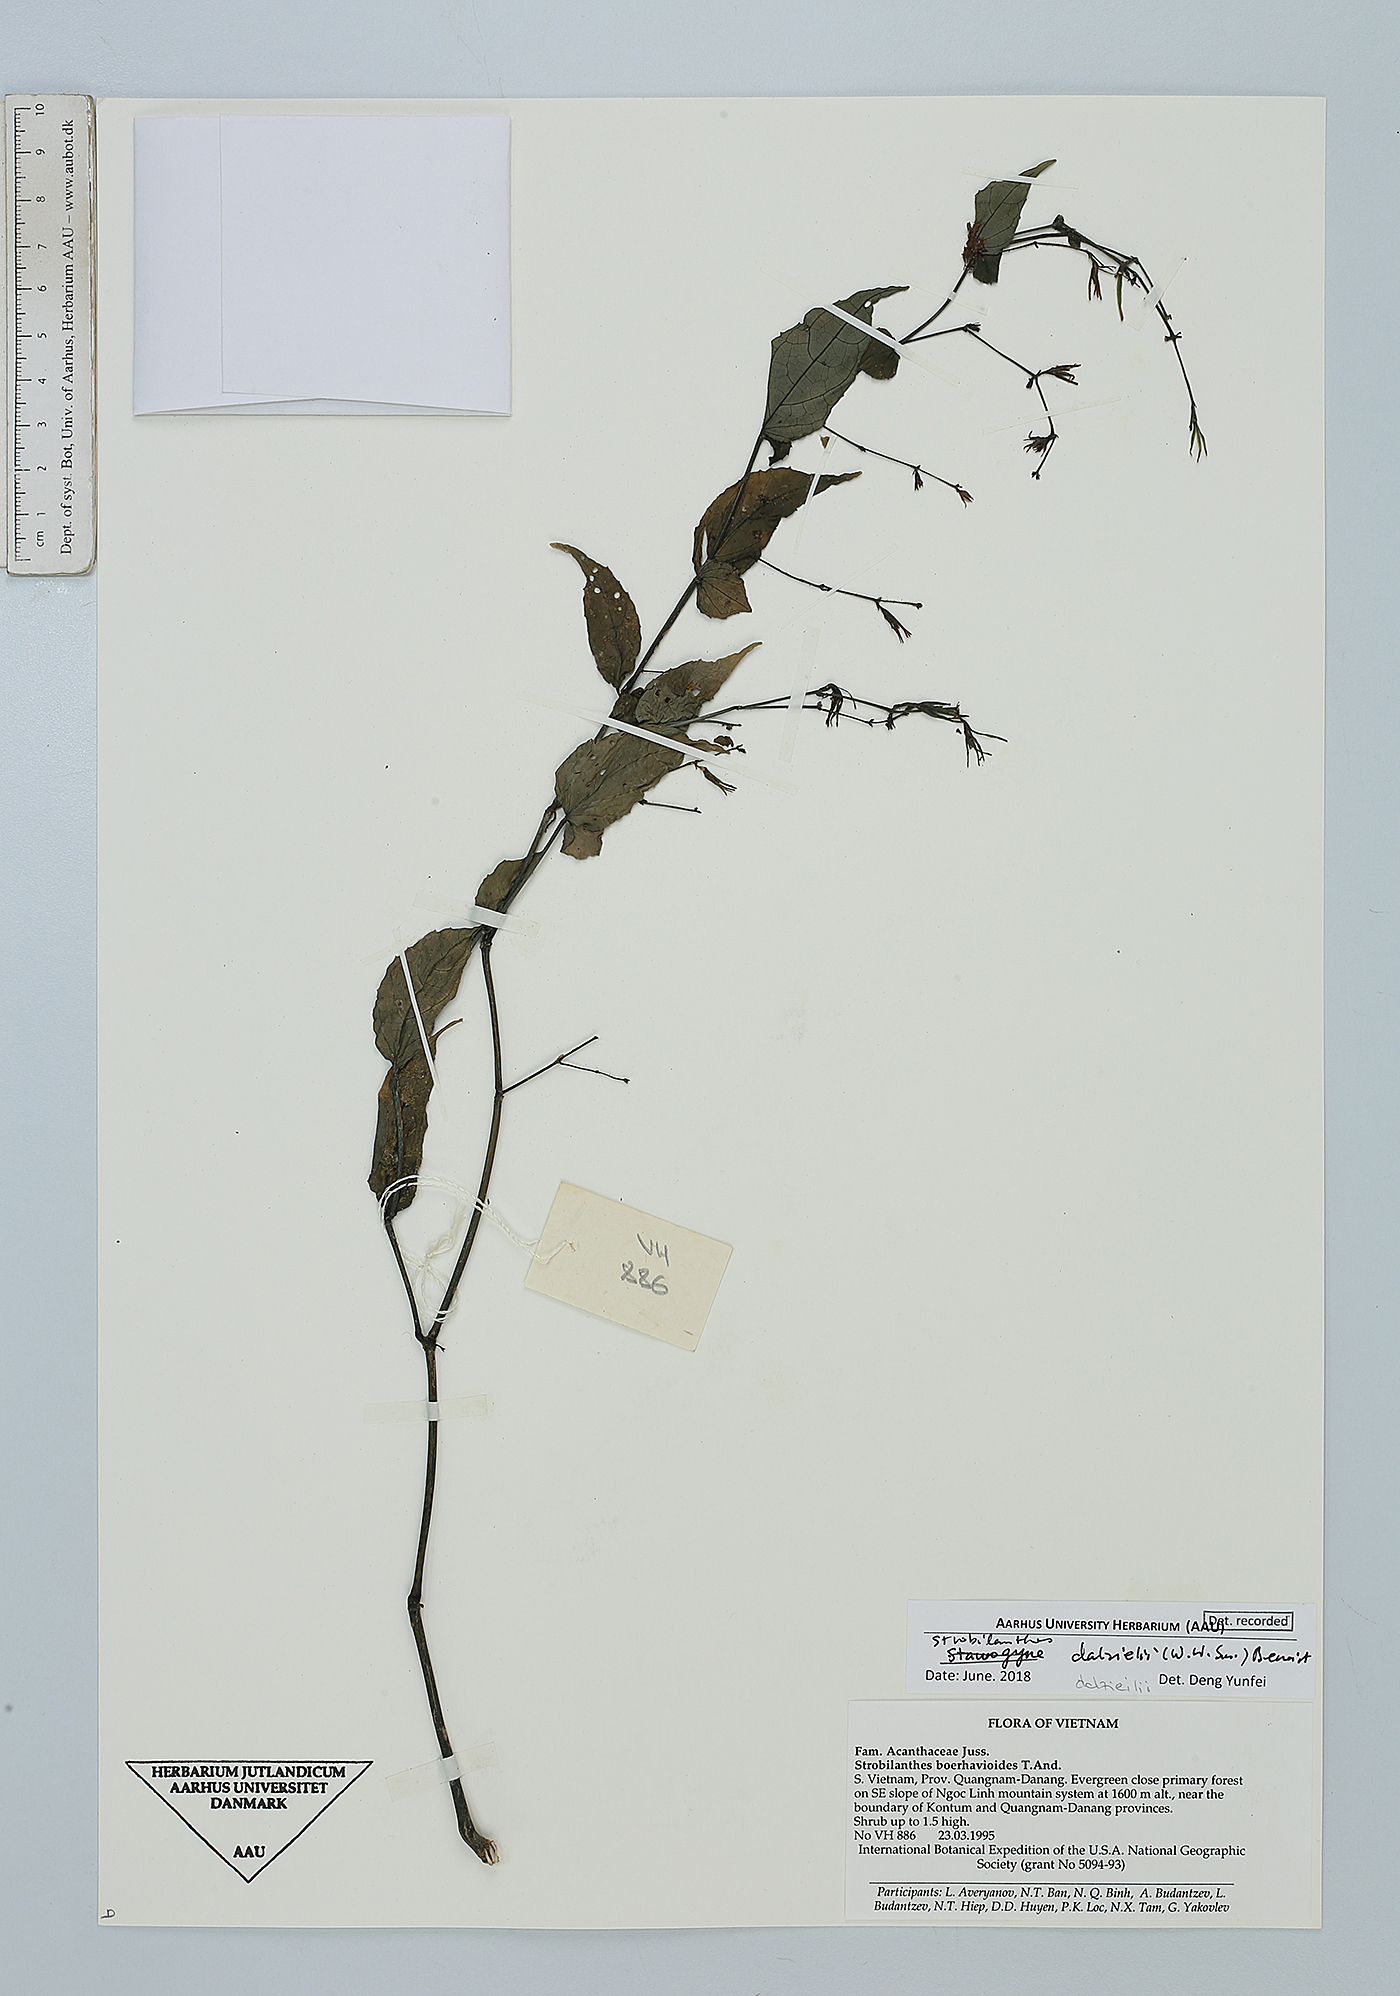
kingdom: Plantae
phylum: Tracheophyta
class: Magnoliopsida
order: Lamiales
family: Acanthaceae
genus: Strobilanthes
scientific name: Strobilanthes dalzielii
